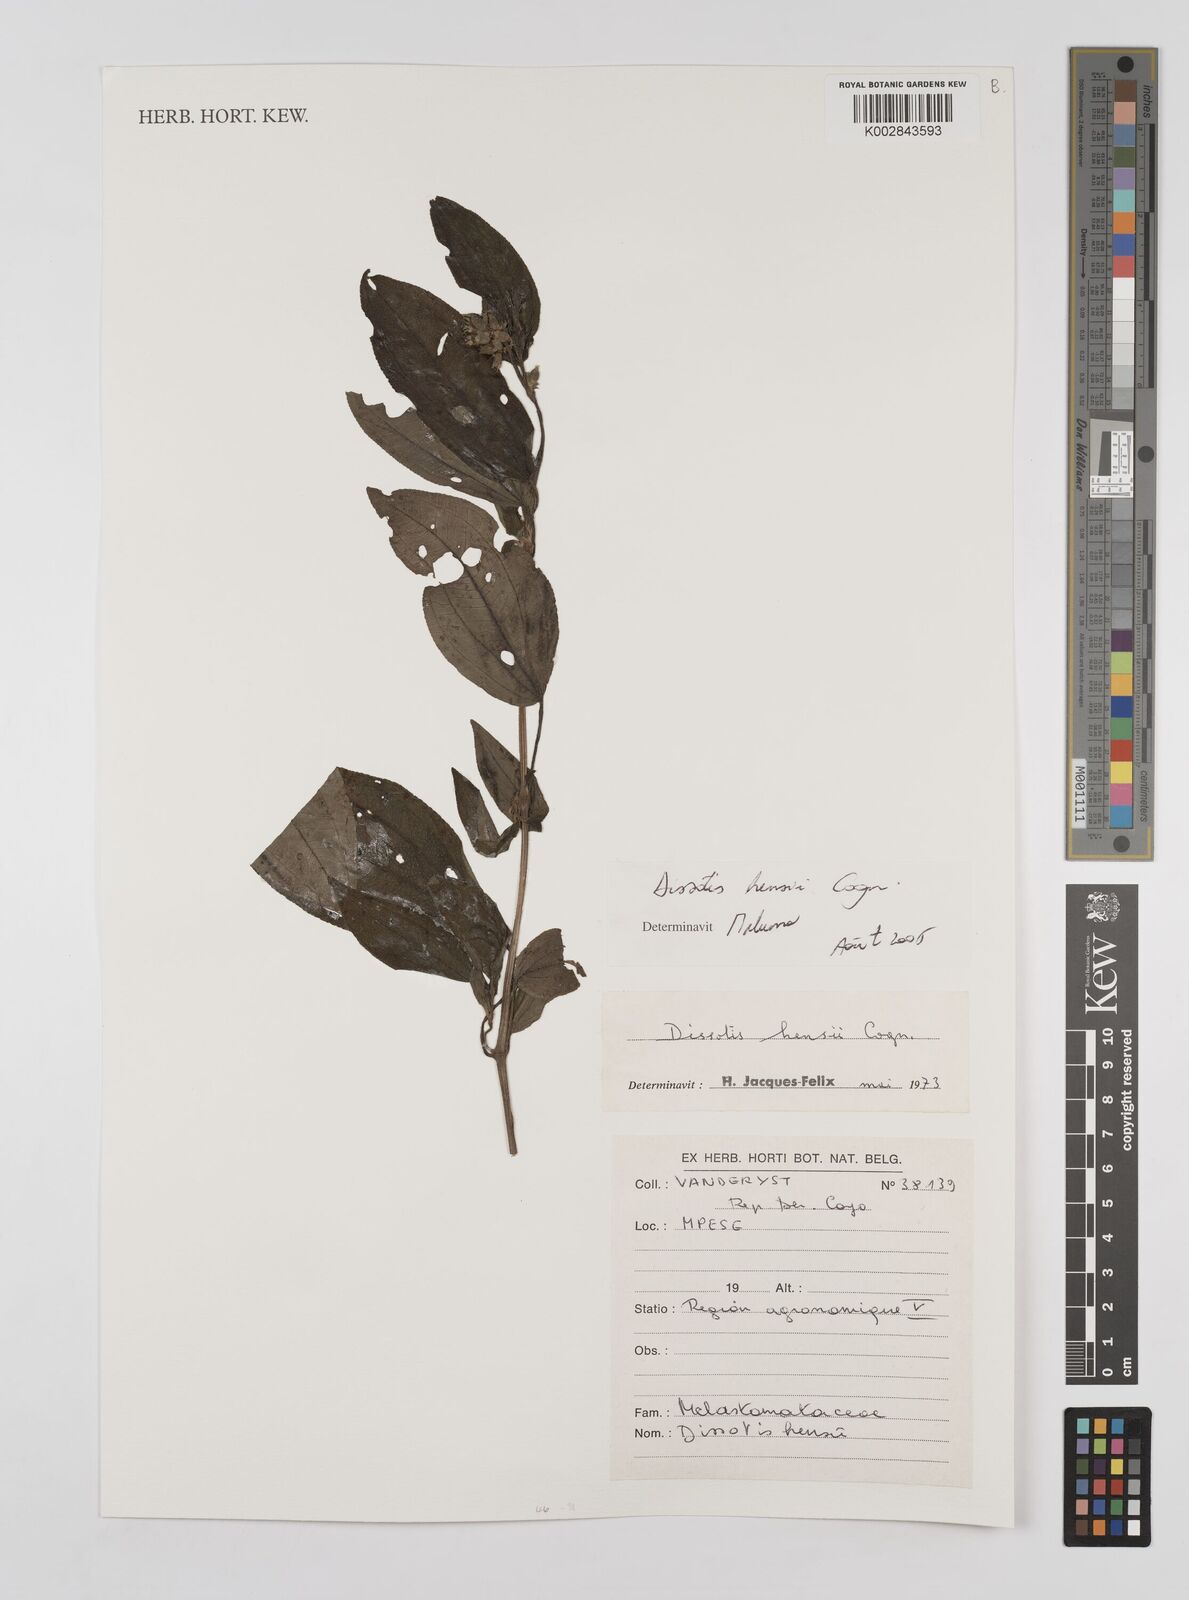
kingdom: Plantae
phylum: Tracheophyta
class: Magnoliopsida
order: Myrtales
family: Melastomataceae
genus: Dupineta
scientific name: Dupineta hensii
